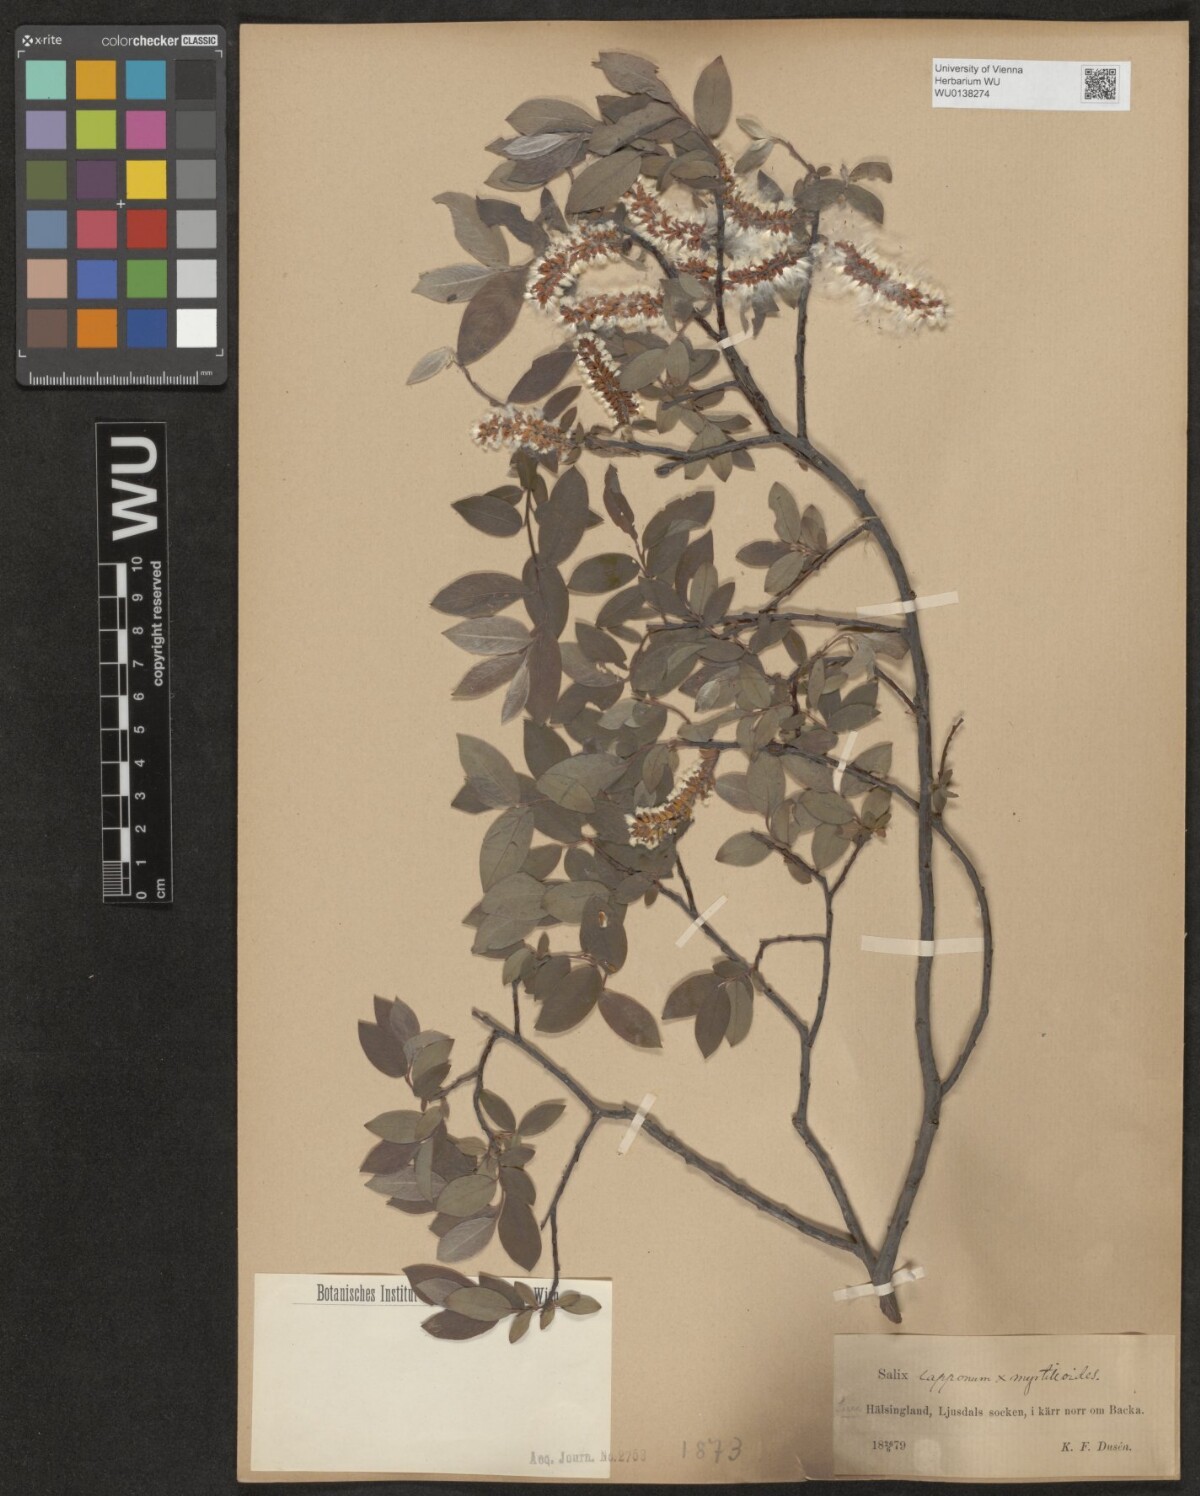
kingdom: Plantae
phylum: Tracheophyta
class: Magnoliopsida
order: Malpighiales
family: Salicaceae
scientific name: Salicaceae
